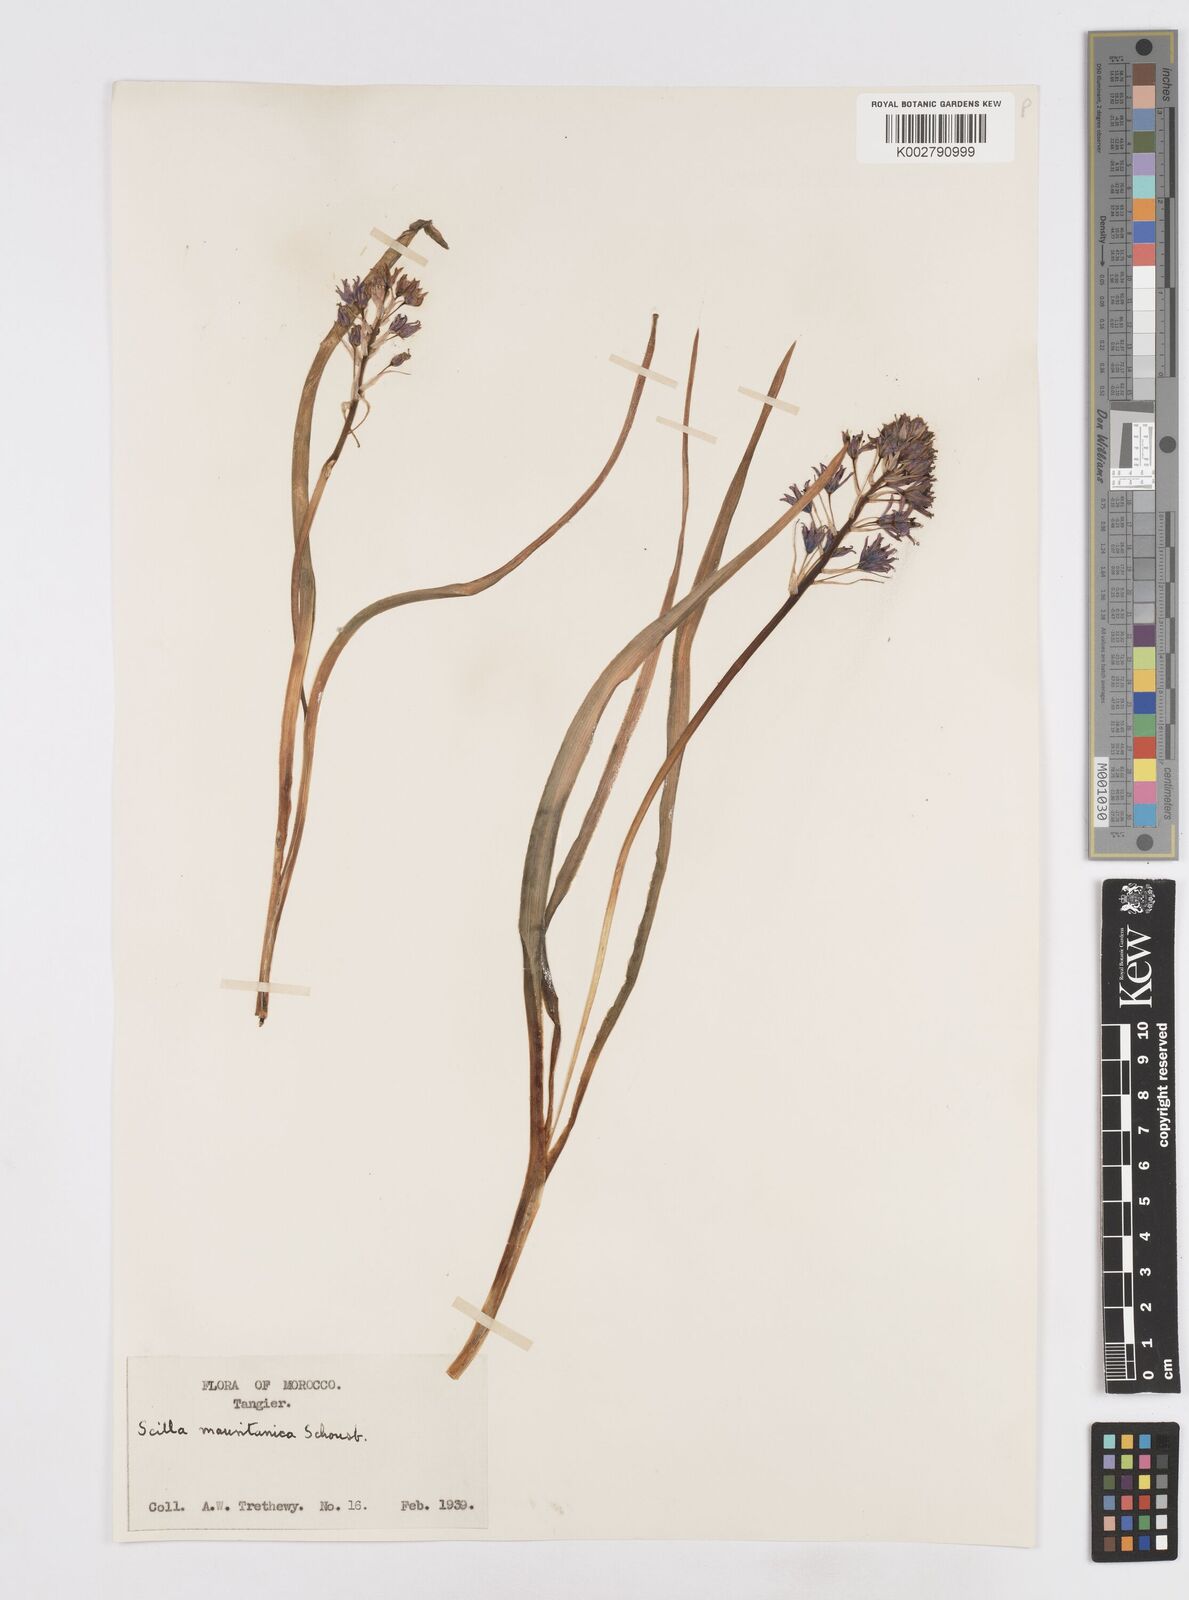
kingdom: Plantae
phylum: Tracheophyta
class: Liliopsida
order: Asparagales
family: Asparagaceae
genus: Hyacinthoides
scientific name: Hyacinthoides mauritanica
